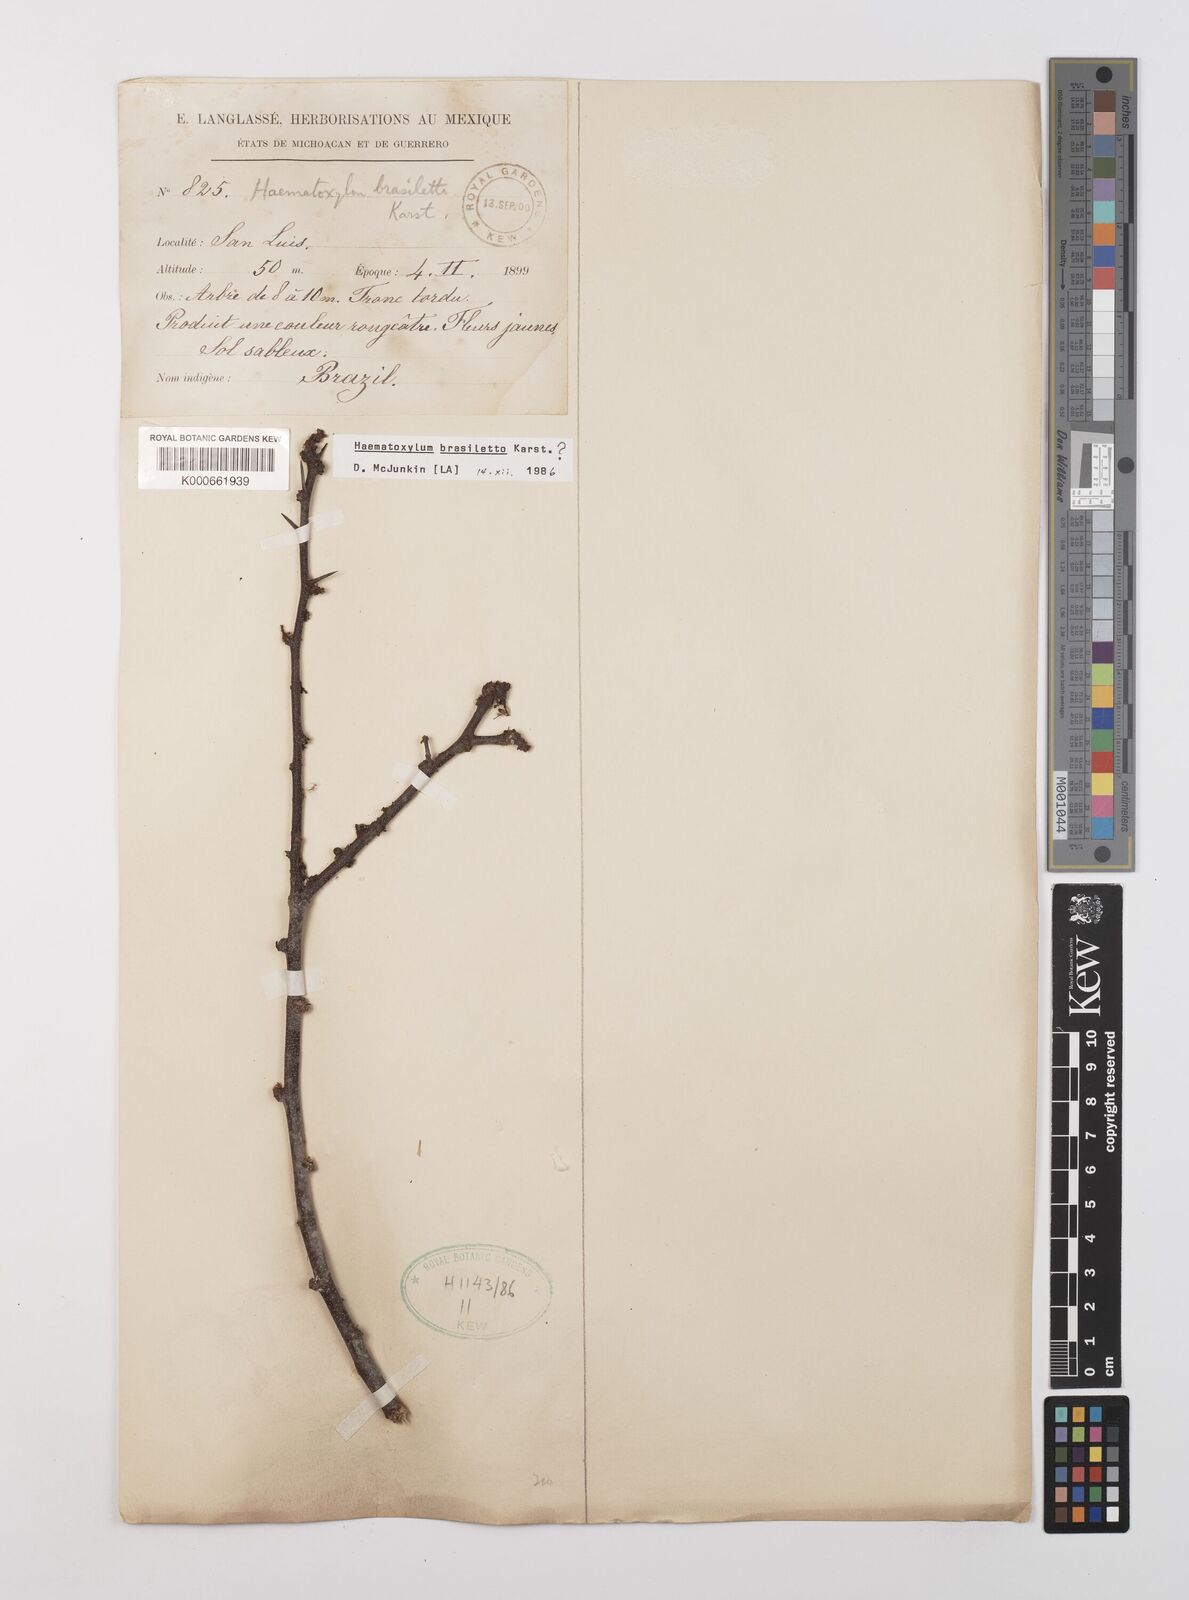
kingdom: Plantae
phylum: Tracheophyta
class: Magnoliopsida
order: Fabales
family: Fabaceae
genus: Haematoxylum
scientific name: Haematoxylum brasiletto
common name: Peachwood
